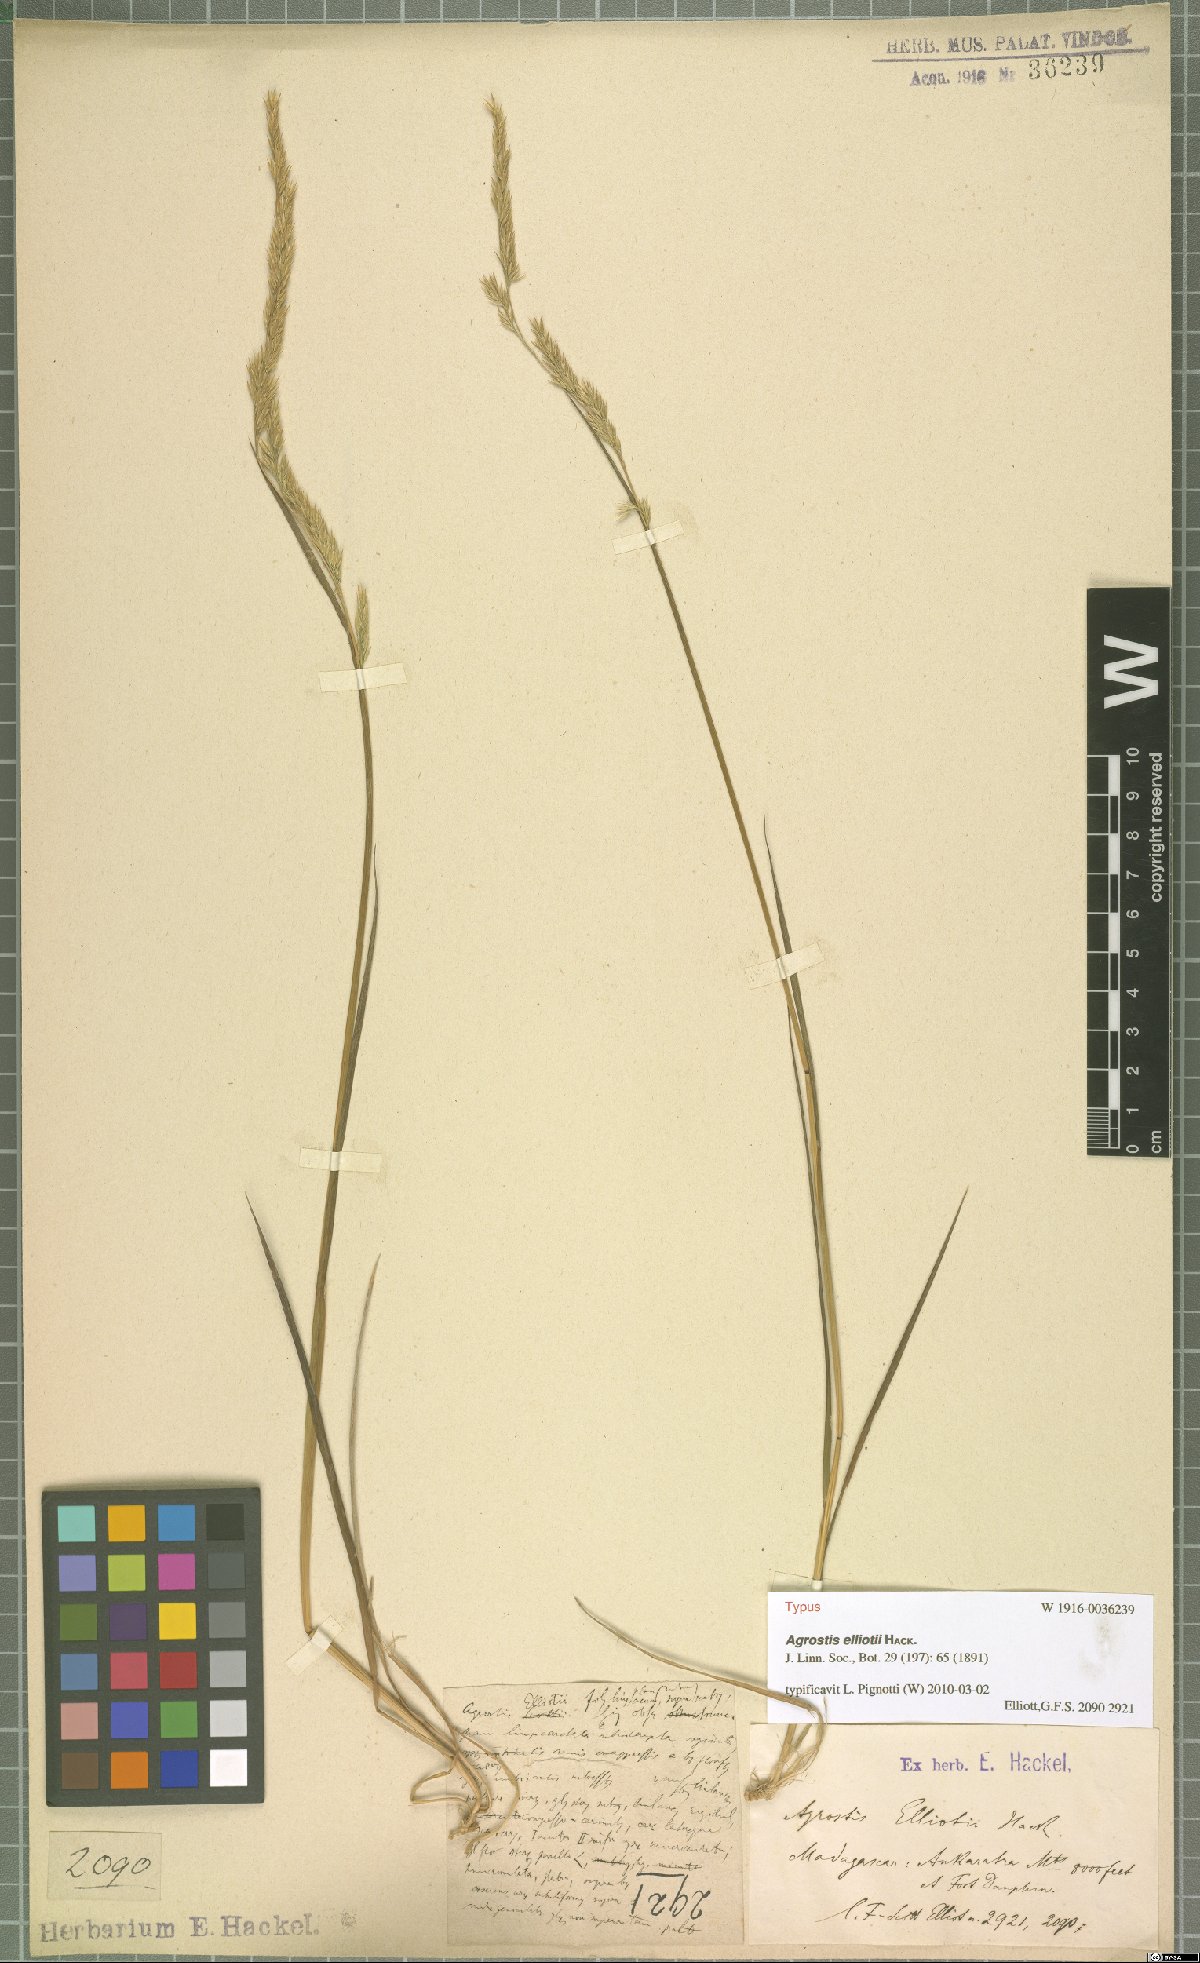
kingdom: Plantae
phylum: Tracheophyta
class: Liliopsida
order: Poales
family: Poaceae
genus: Agrostis
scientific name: Agrostis elliotii
